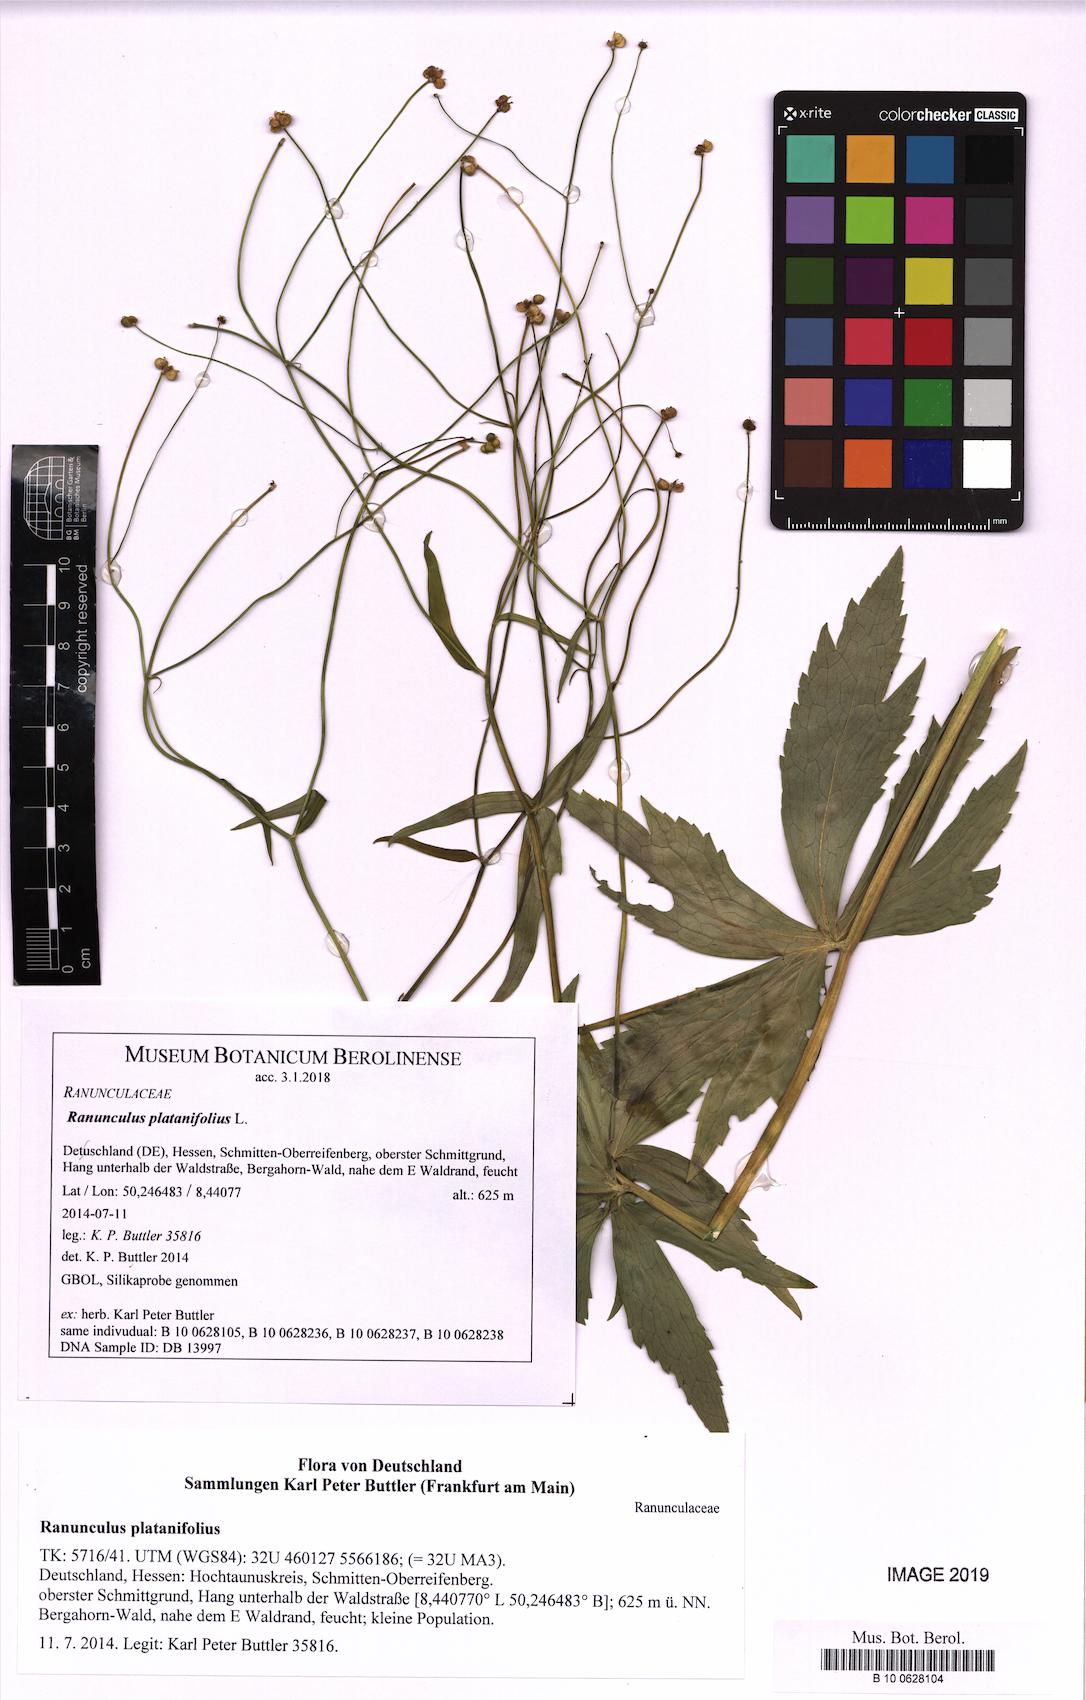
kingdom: Plantae
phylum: Tracheophyta
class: Magnoliopsida
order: Ranunculales
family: Ranunculaceae
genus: Ranunculus
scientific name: Ranunculus platanifolius
